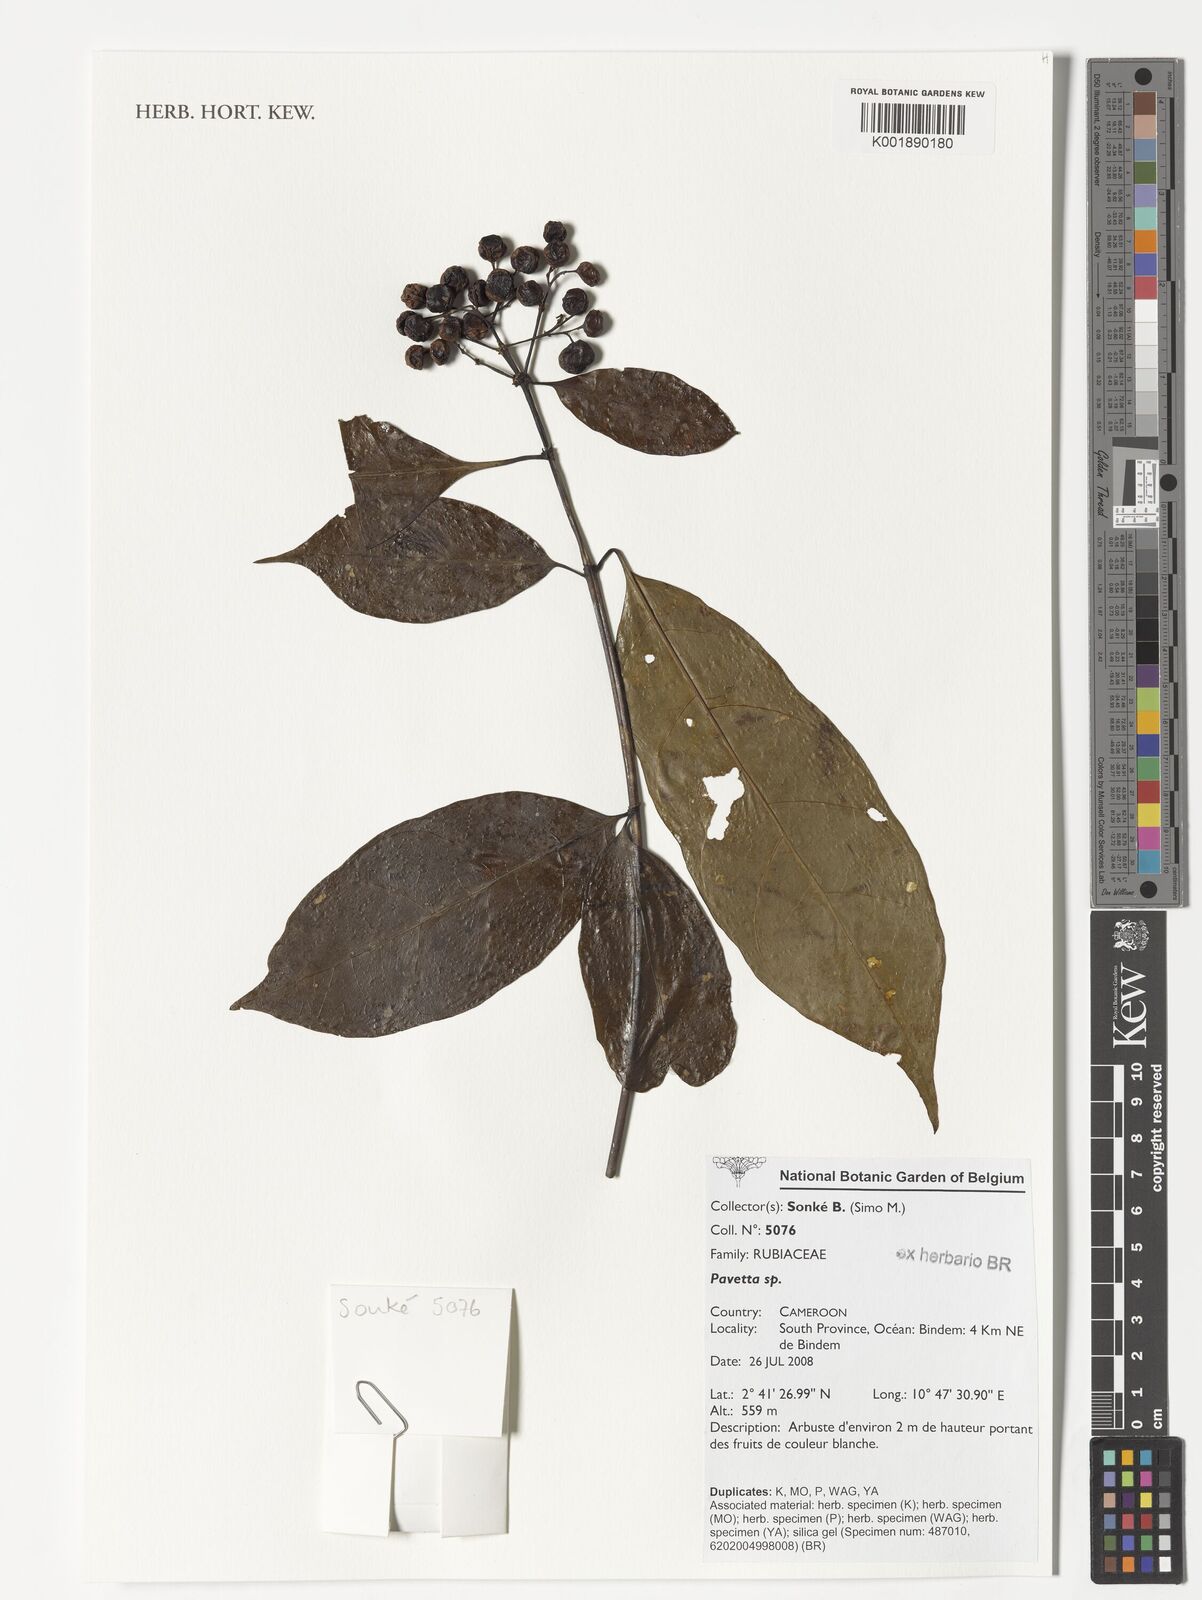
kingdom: Plantae
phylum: Tracheophyta
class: Magnoliopsida
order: Gentianales
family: Rubiaceae
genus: Pavetta
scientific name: Pavetta
